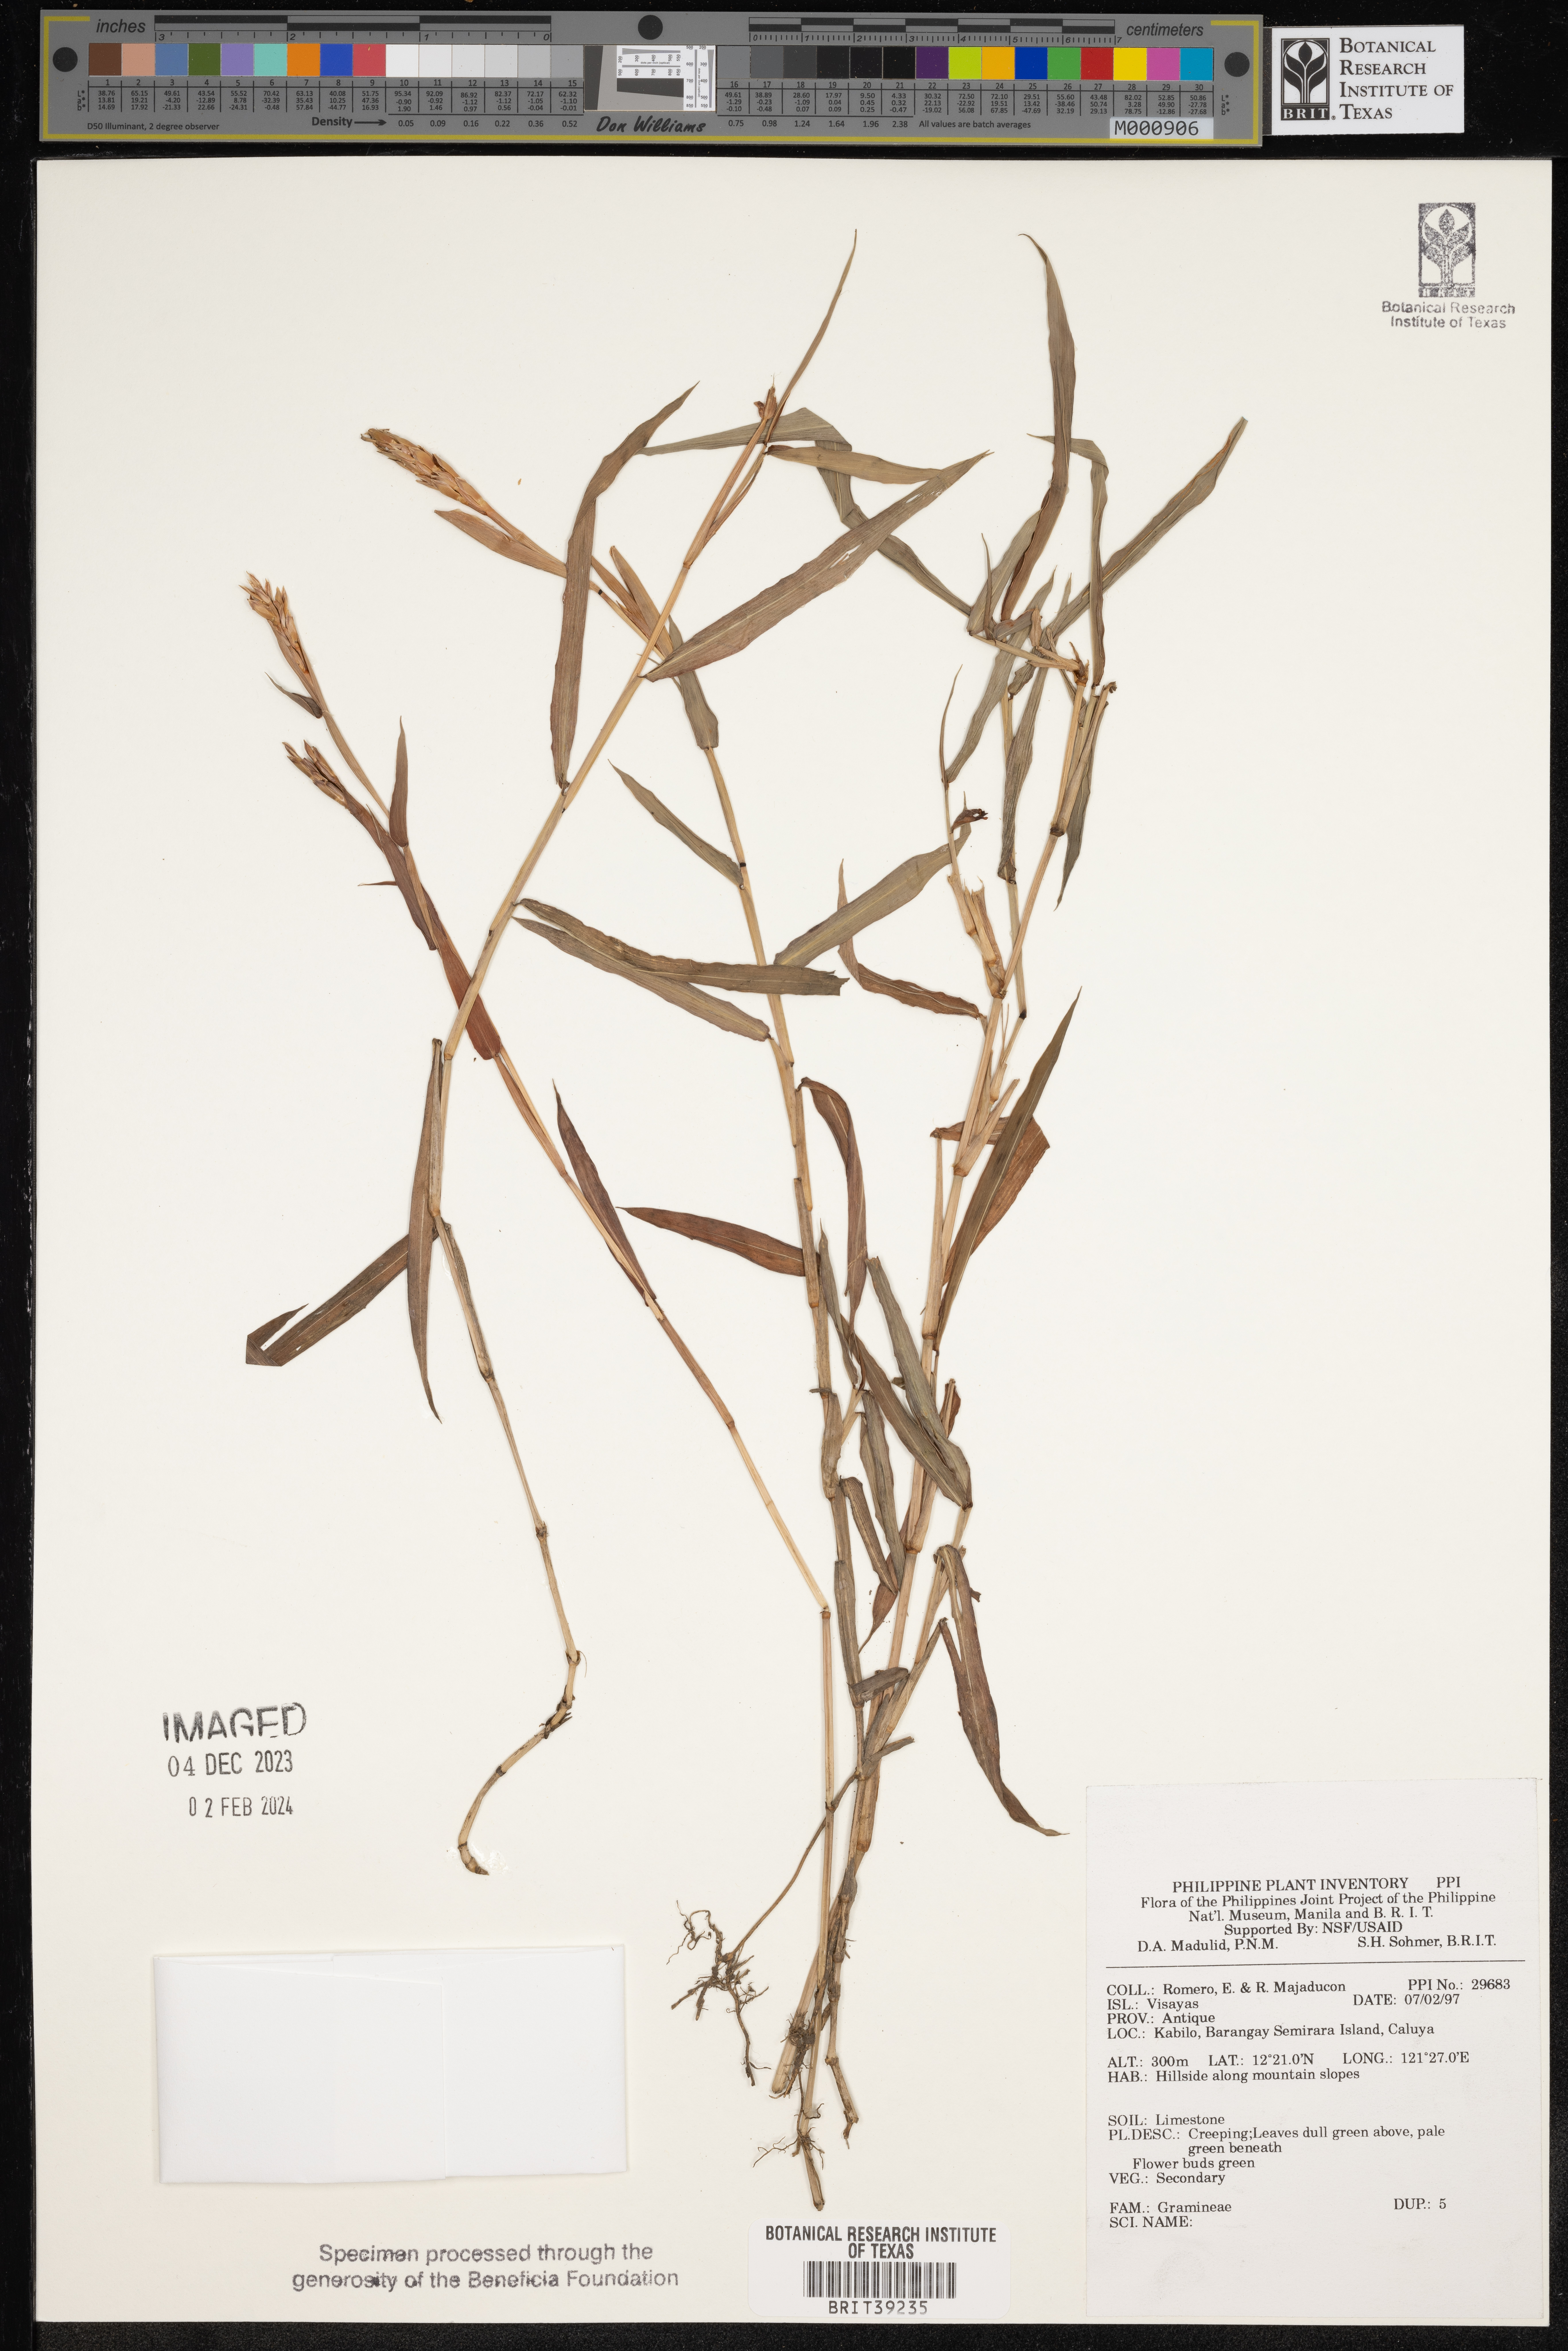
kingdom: Plantae
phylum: Tracheophyta
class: Liliopsida
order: Poales
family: Poaceae
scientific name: Poaceae
